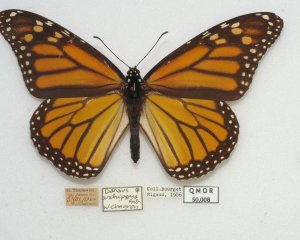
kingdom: Animalia
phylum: Arthropoda
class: Insecta
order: Lepidoptera
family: Nymphalidae
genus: Danaus
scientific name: Danaus plexippus
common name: Monarch
